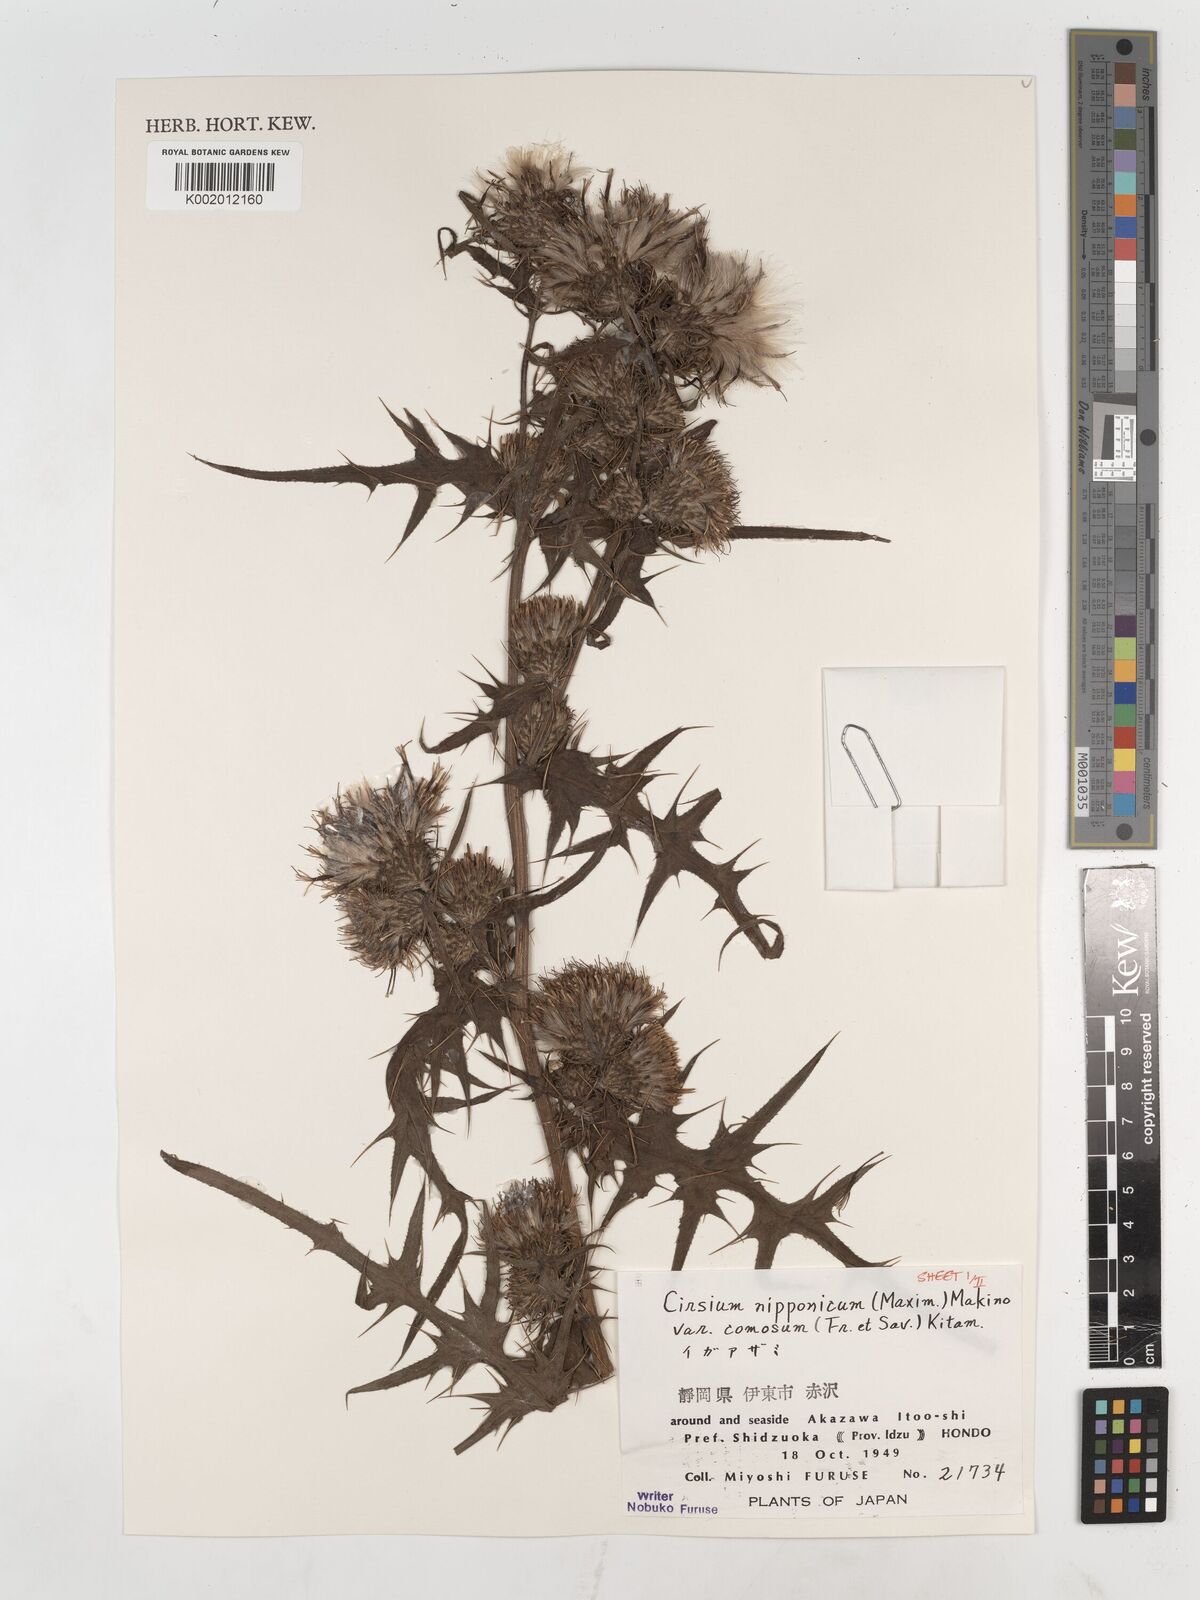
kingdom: Plantae
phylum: Tracheophyta
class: Magnoliopsida
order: Asterales
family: Asteraceae
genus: Cirsium
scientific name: Cirsium nipponicum
